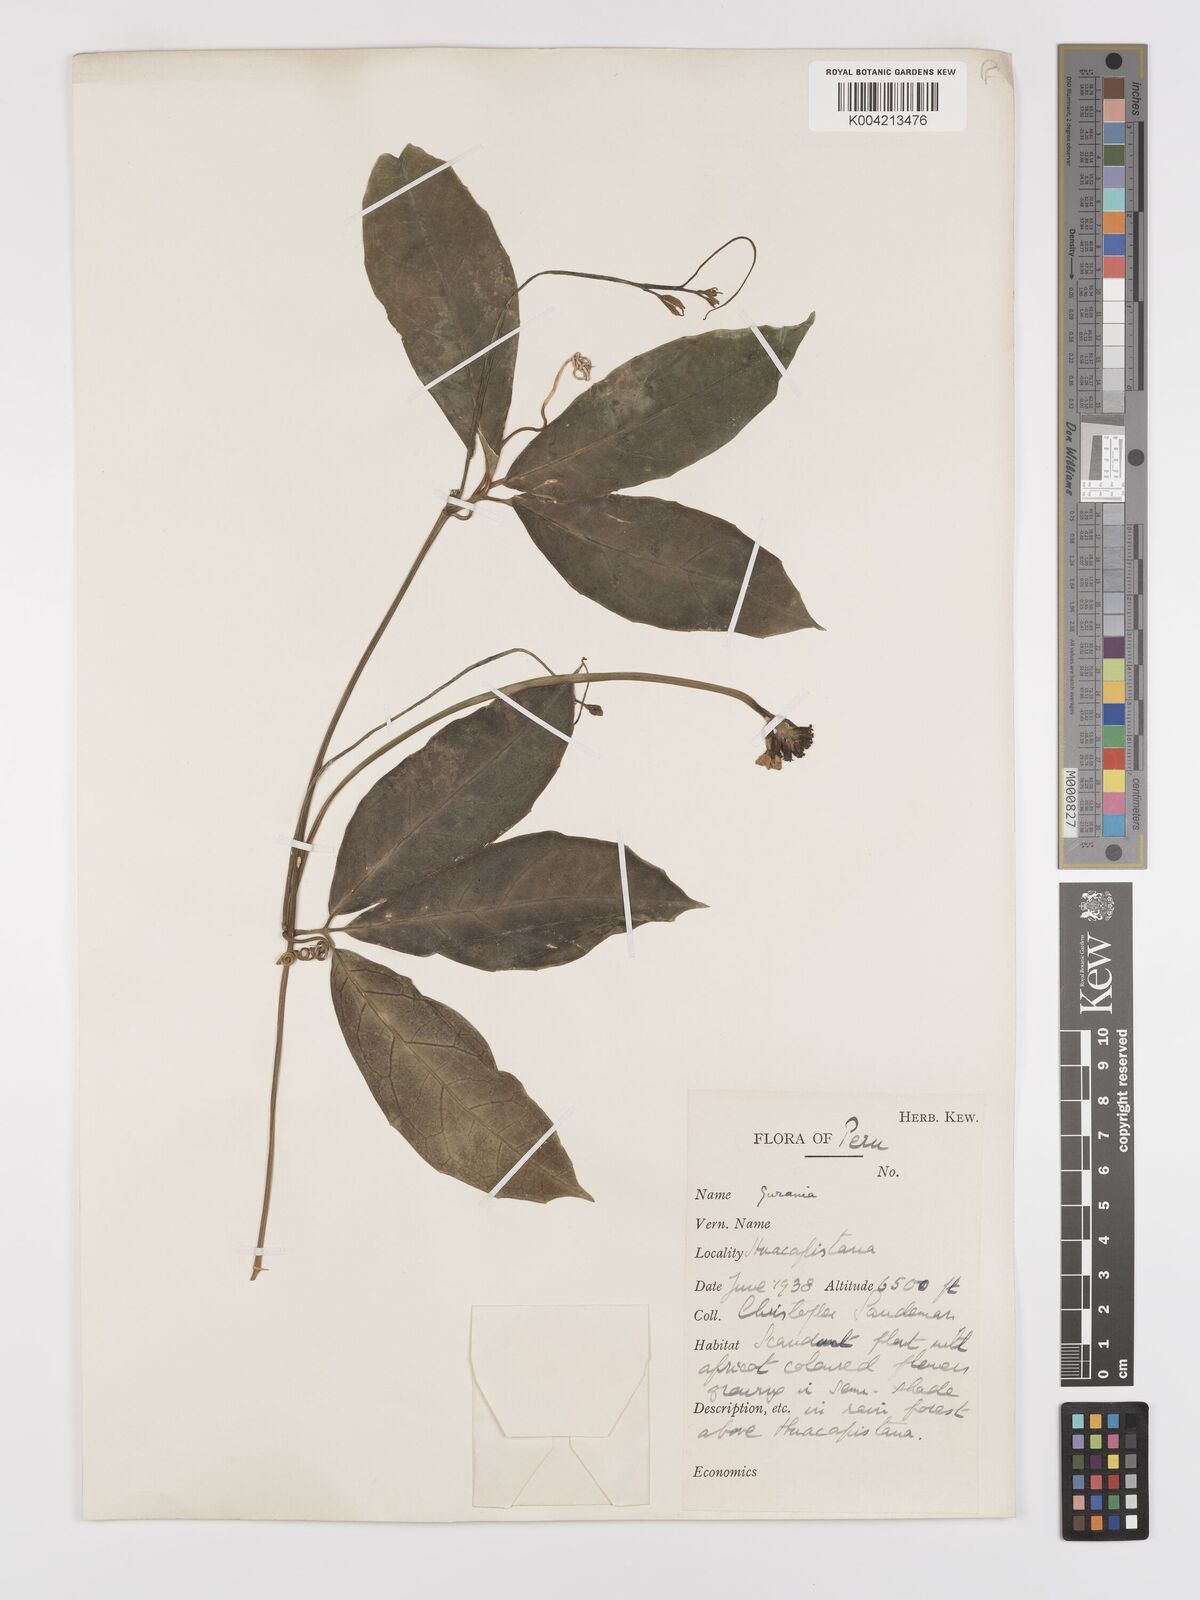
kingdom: Plantae
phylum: Tracheophyta
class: Magnoliopsida
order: Cucurbitales
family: Cucurbitaceae
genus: Psiguria
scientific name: Psiguria triphylla
